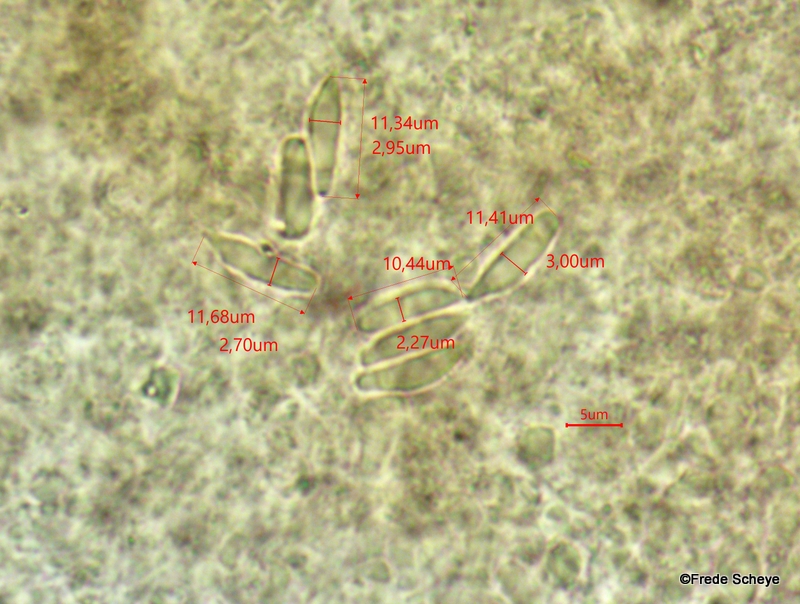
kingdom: Fungi
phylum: Basidiomycota
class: Agaricomycetes
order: Agaricales
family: Mycenaceae
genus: Mycena
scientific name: Mycena acicula
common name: orange huesvamp
